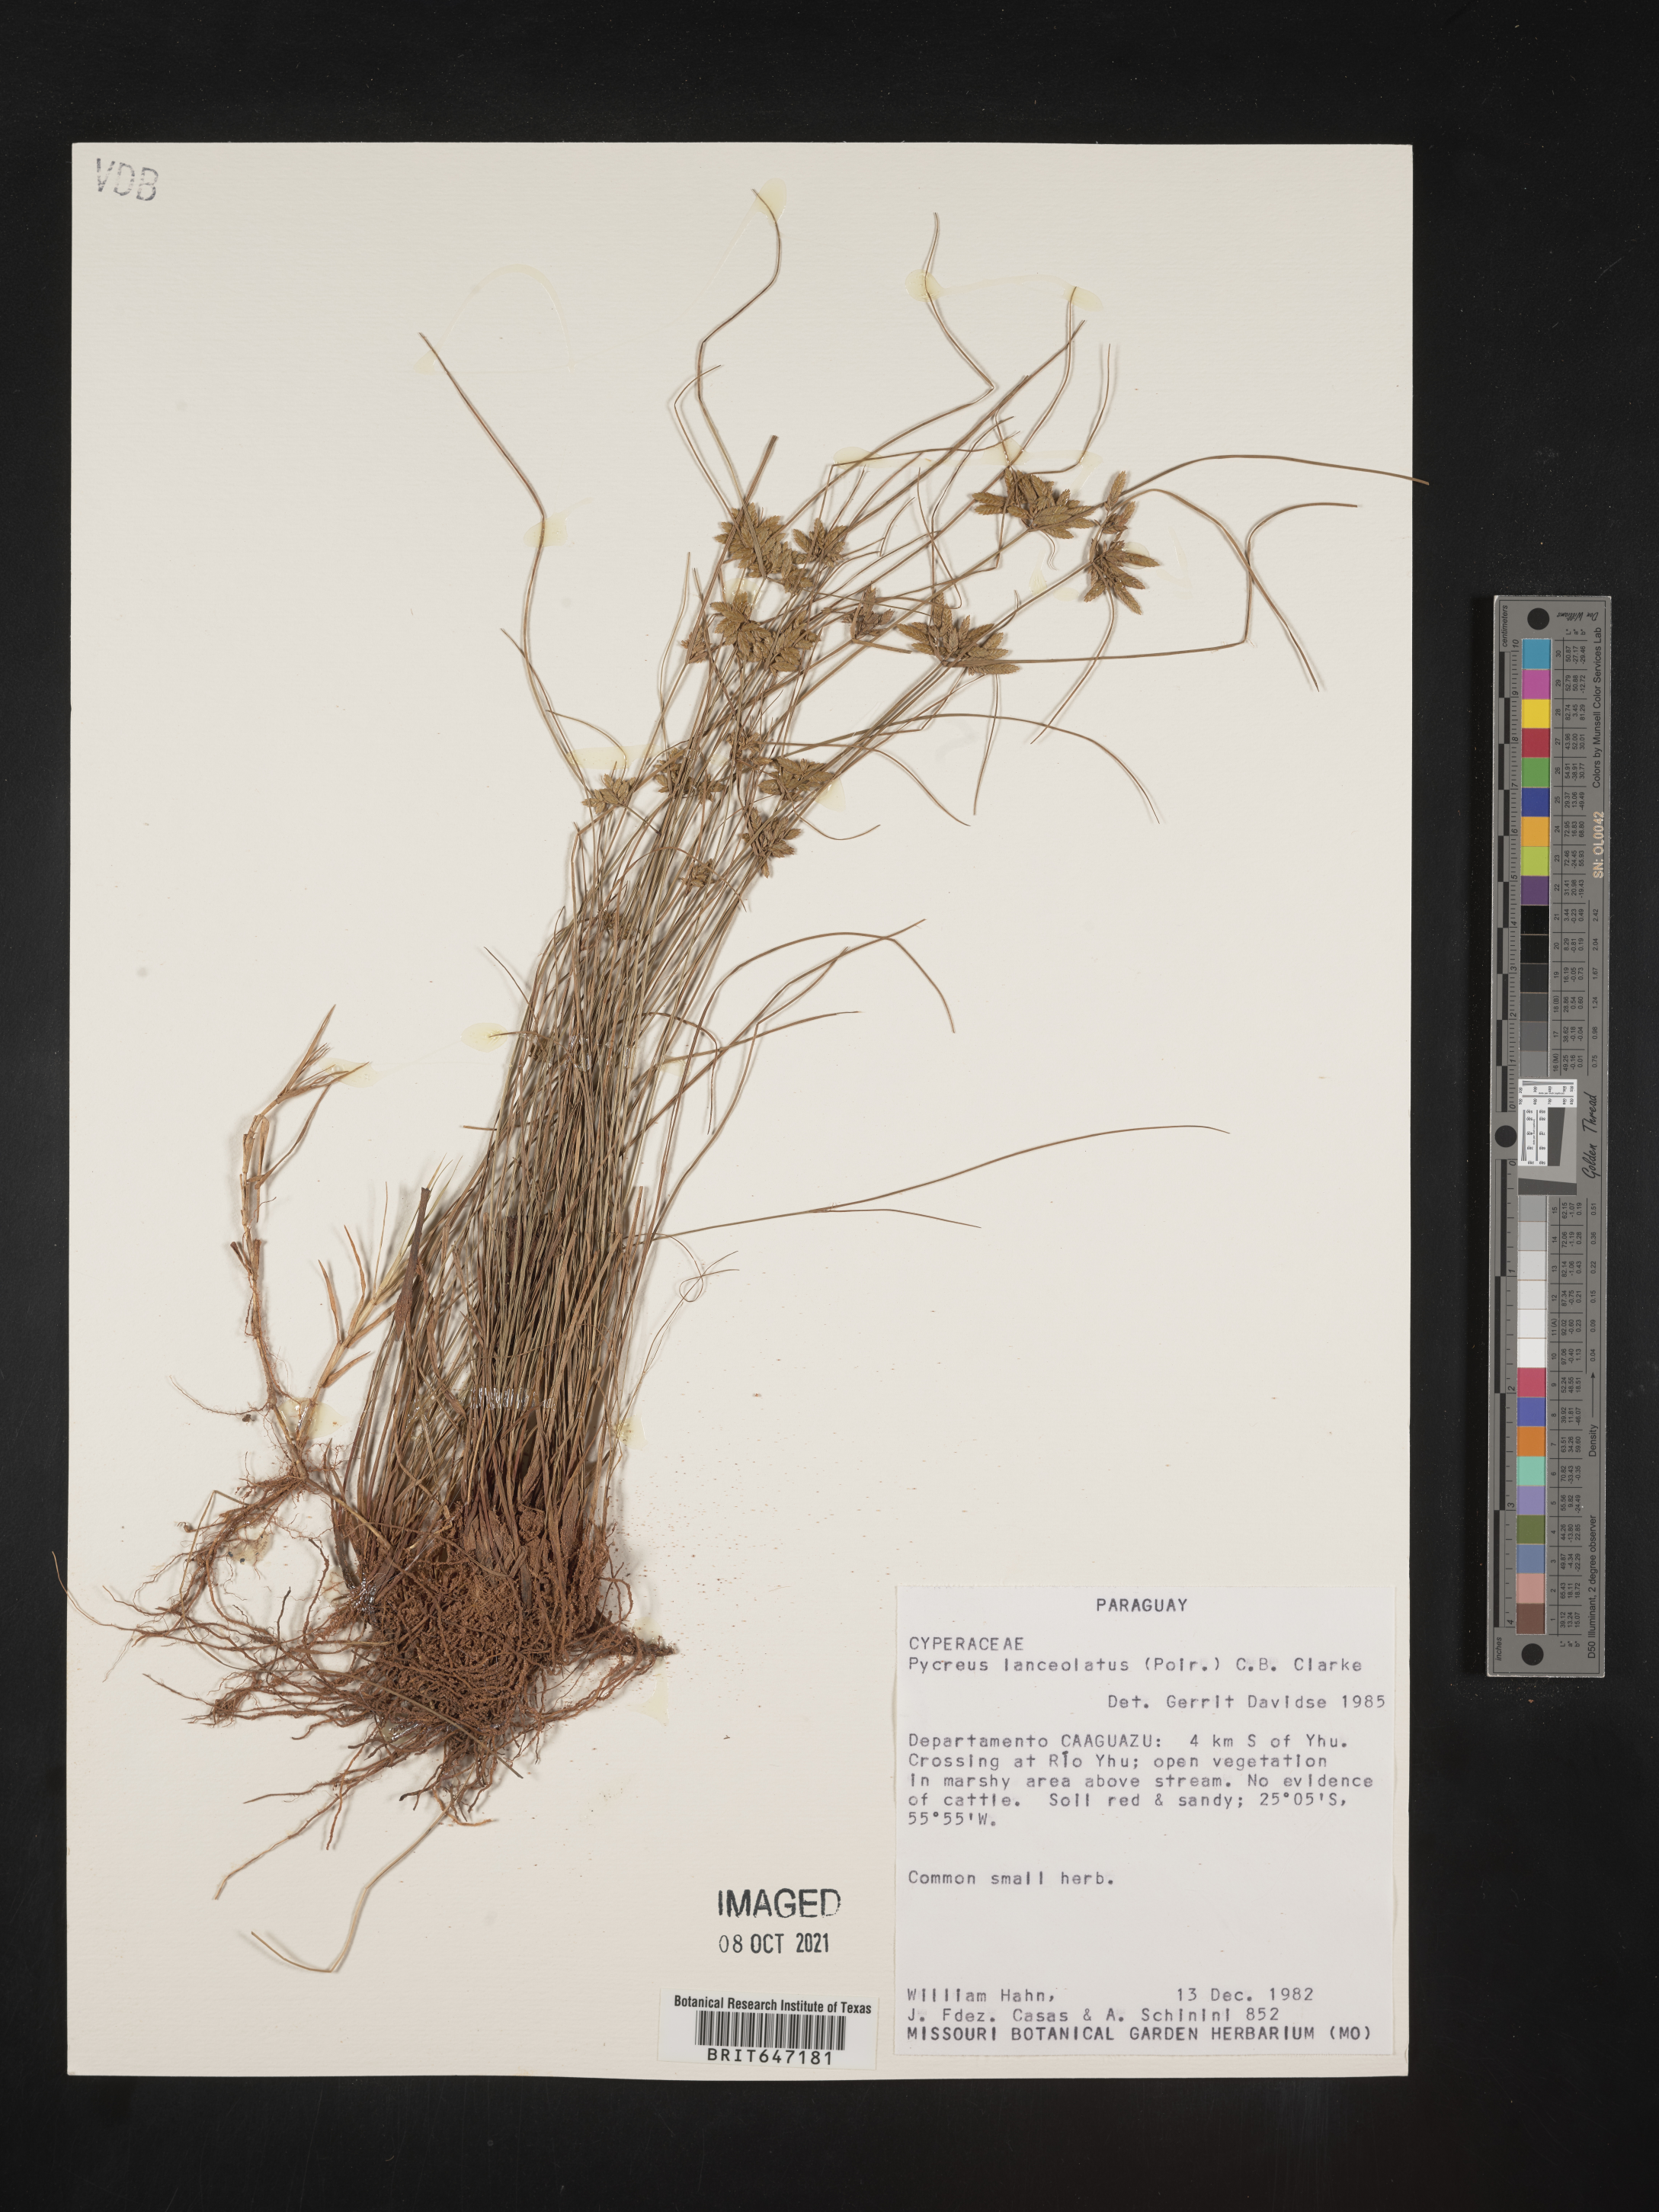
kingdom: Plantae
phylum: Tracheophyta
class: Liliopsida
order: Poales
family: Cyperaceae
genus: Cyperus
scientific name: Cyperus lanceolatus
